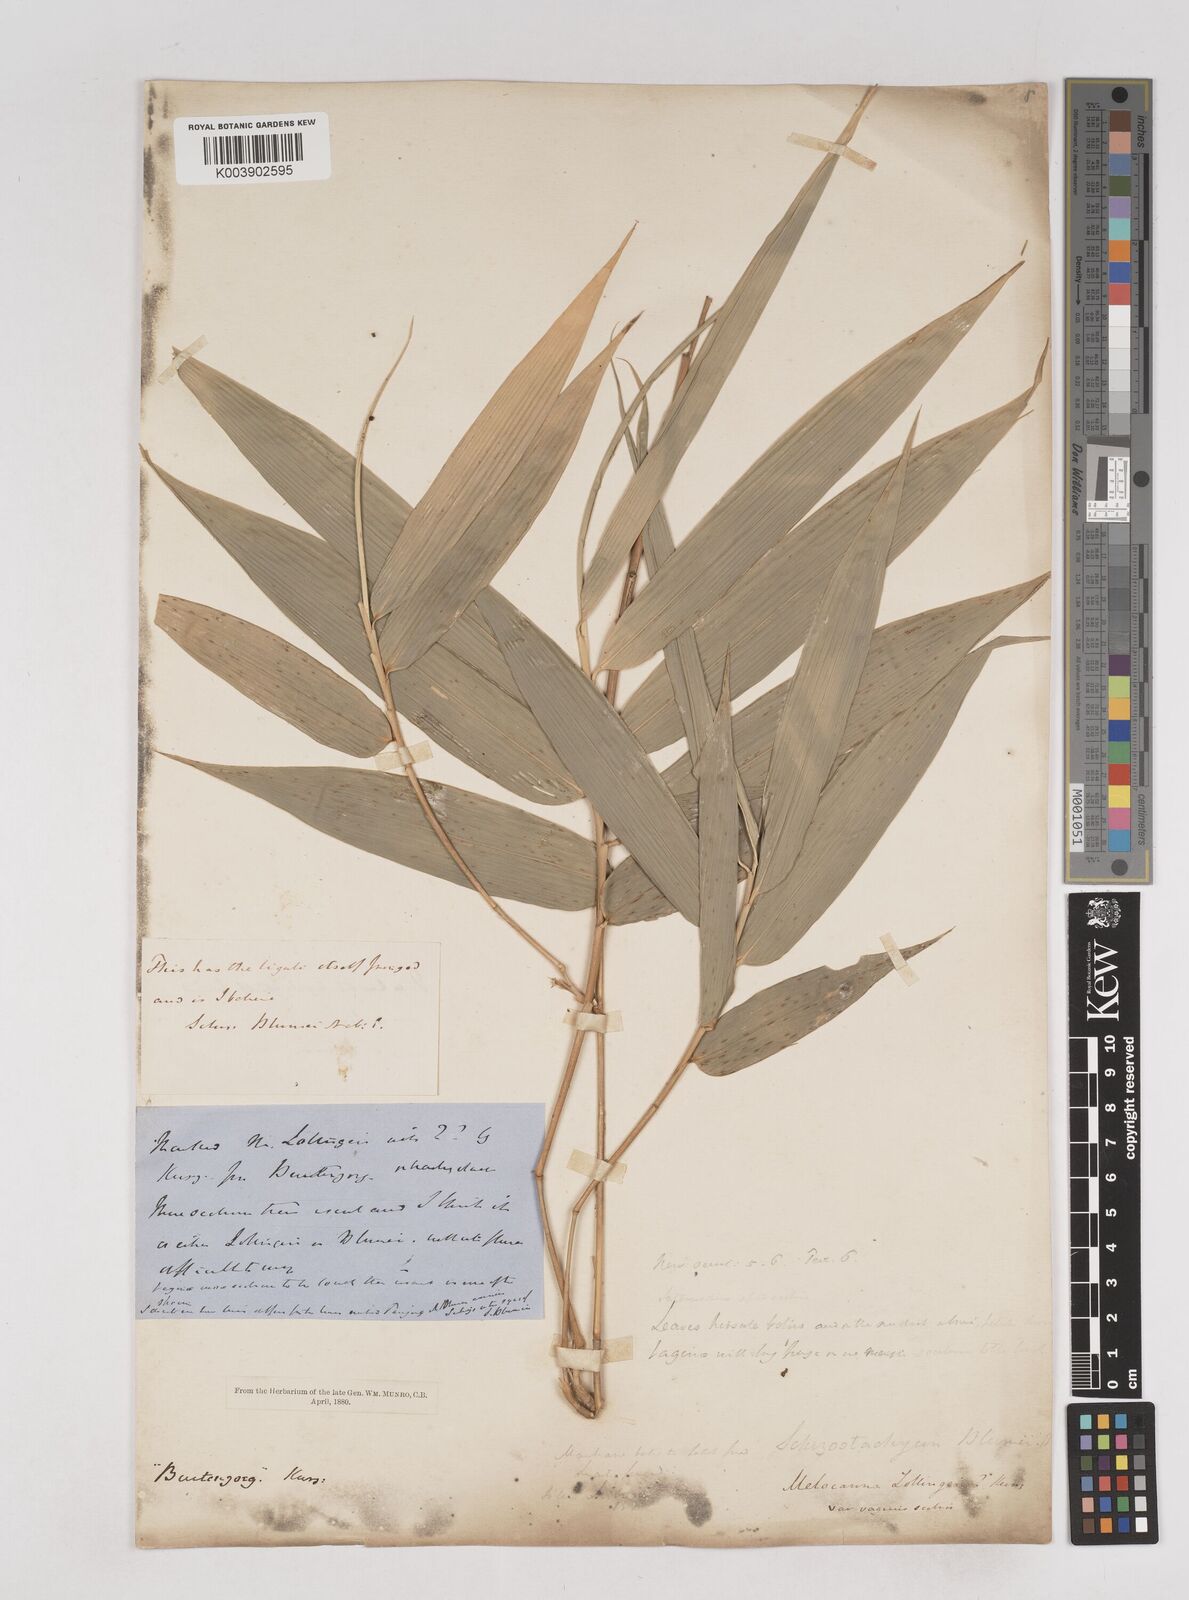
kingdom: Plantae
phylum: Tracheophyta
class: Liliopsida
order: Poales
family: Poaceae
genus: Schizostachyum
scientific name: Schizostachyum blumei
